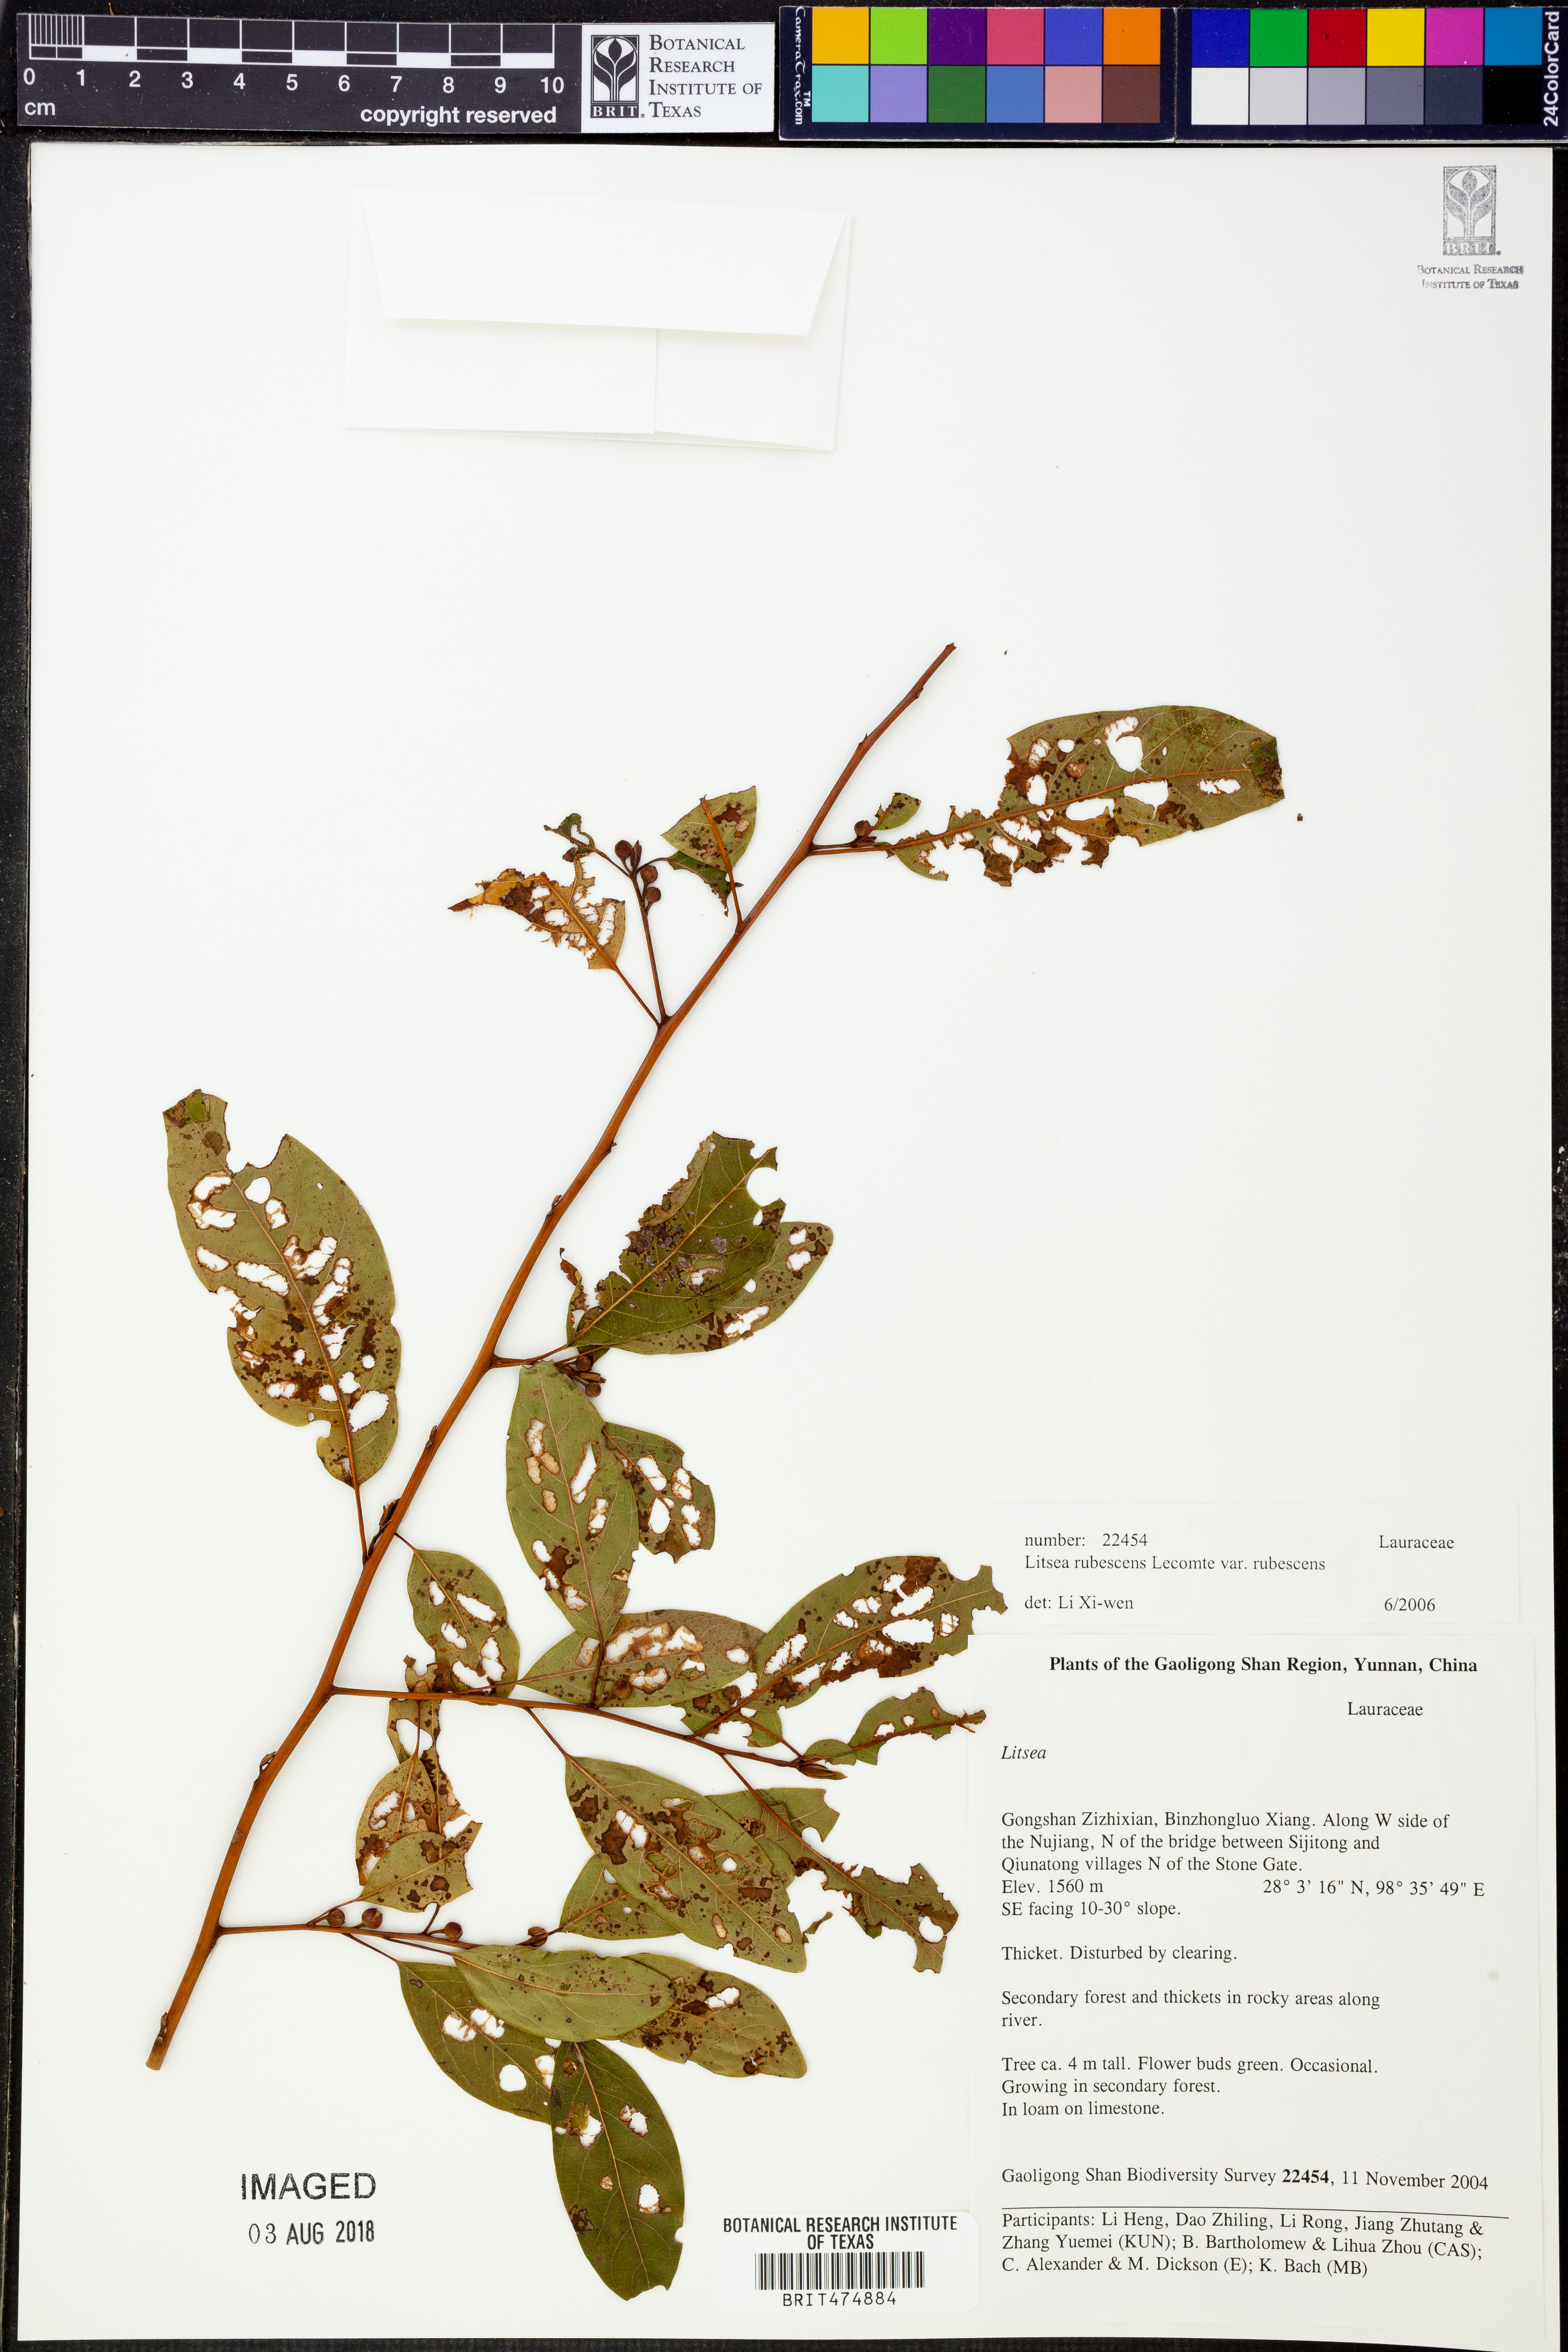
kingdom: Plantae
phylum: Tracheophyta
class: Magnoliopsida
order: Laurales
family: Lauraceae
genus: Litsea
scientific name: Litsea rubescens
